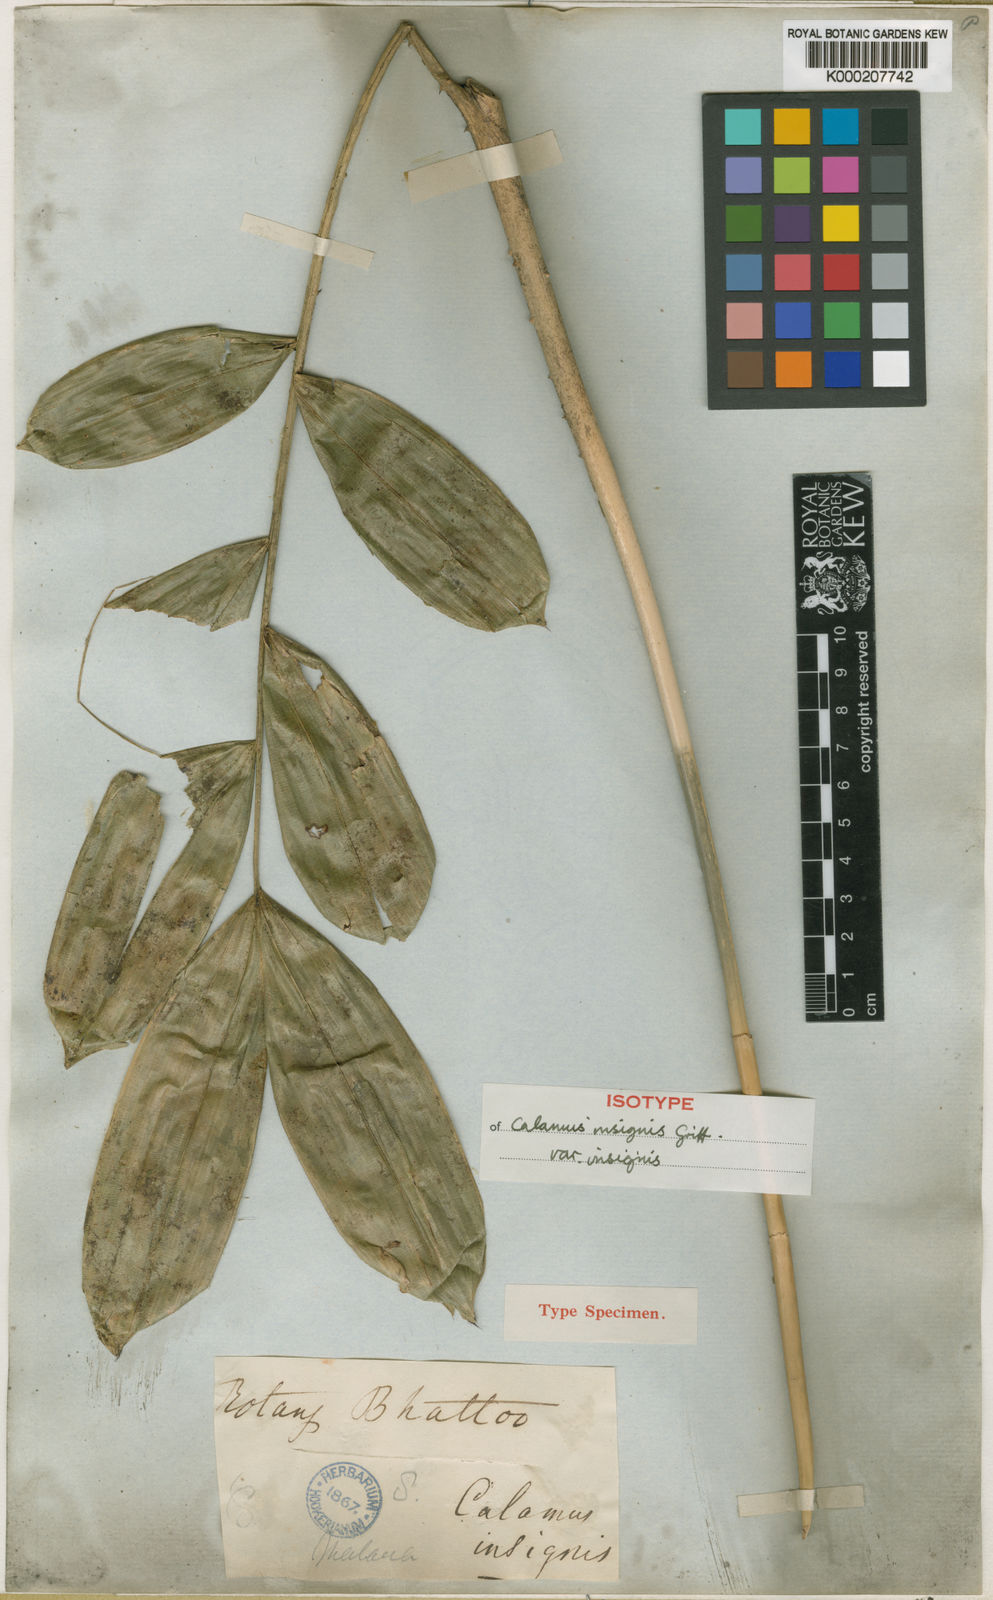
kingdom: Plantae
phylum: Tracheophyta
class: Liliopsida
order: Arecales
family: Arecaceae
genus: Calamus
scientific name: Calamus insignis
